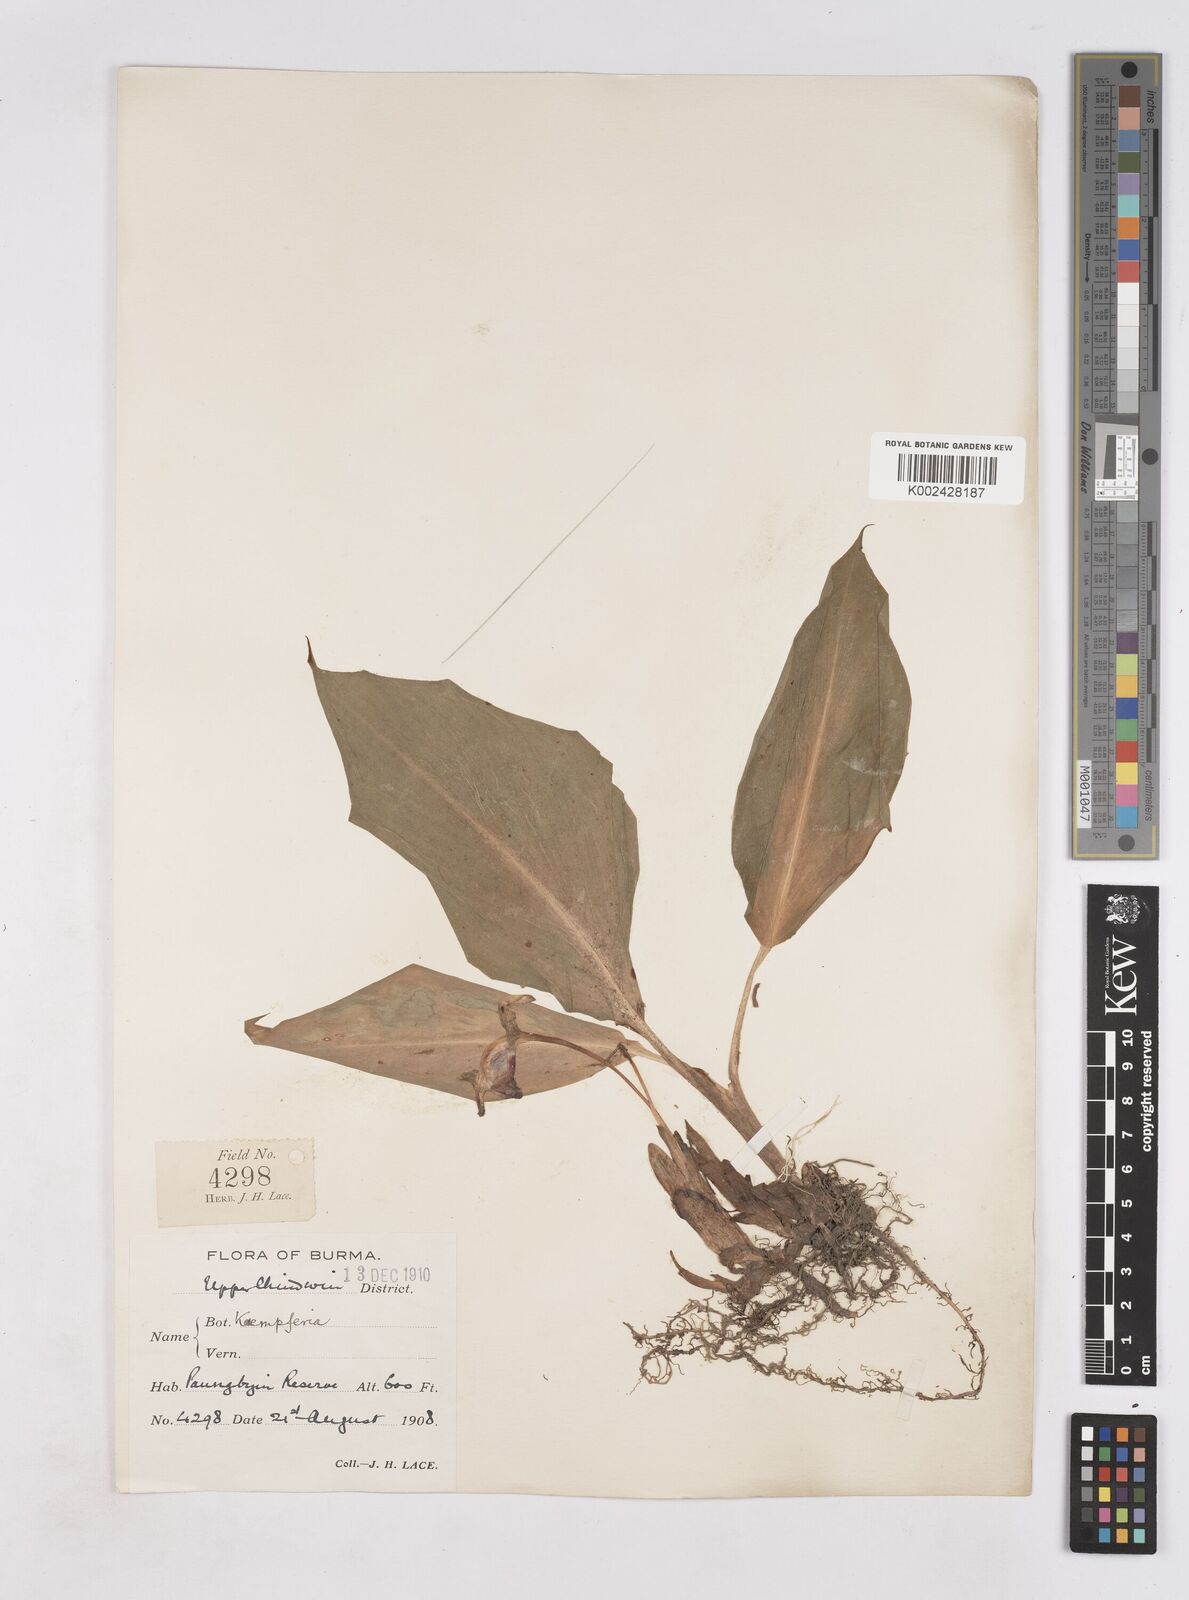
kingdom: Plantae
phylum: Tracheophyta
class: Liliopsida
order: Zingiberales
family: Zingiberaceae
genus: Boesenbergia
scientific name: Boesenbergia longiflora
